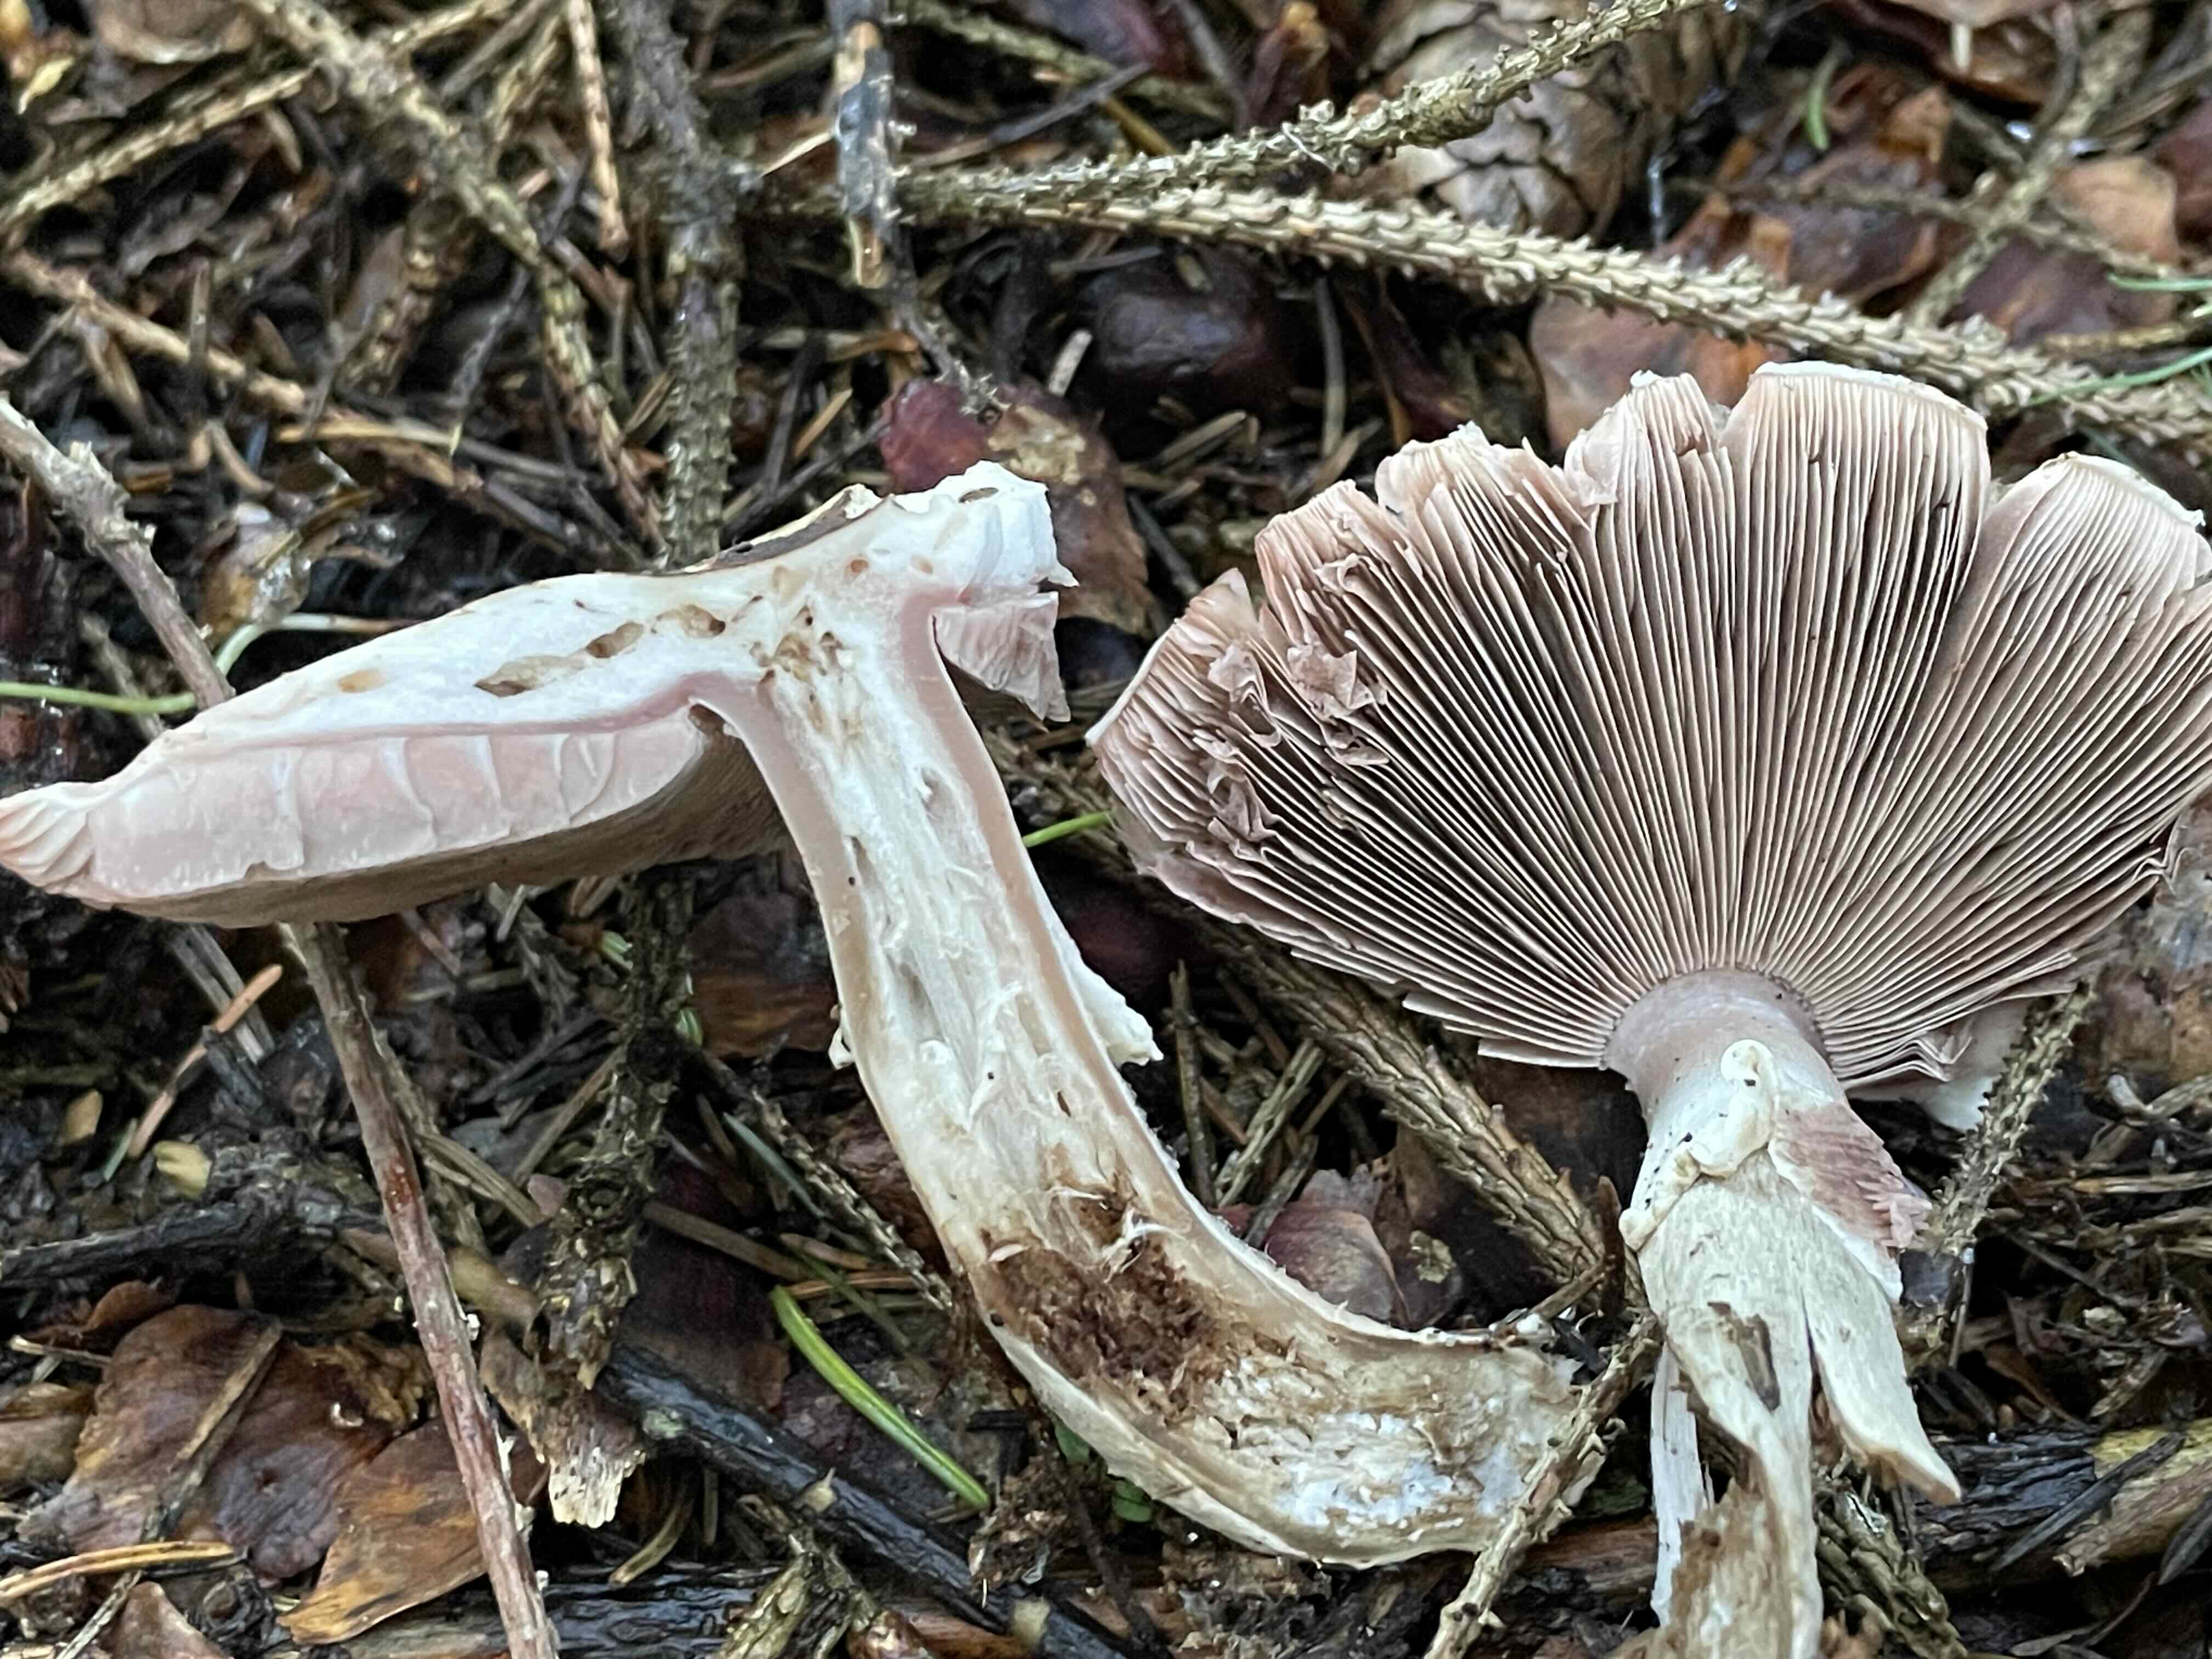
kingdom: Fungi
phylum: Basidiomycota
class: Agaricomycetes
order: Agaricales
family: Agaricaceae
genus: Agaricus
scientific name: Agaricus impudicus
